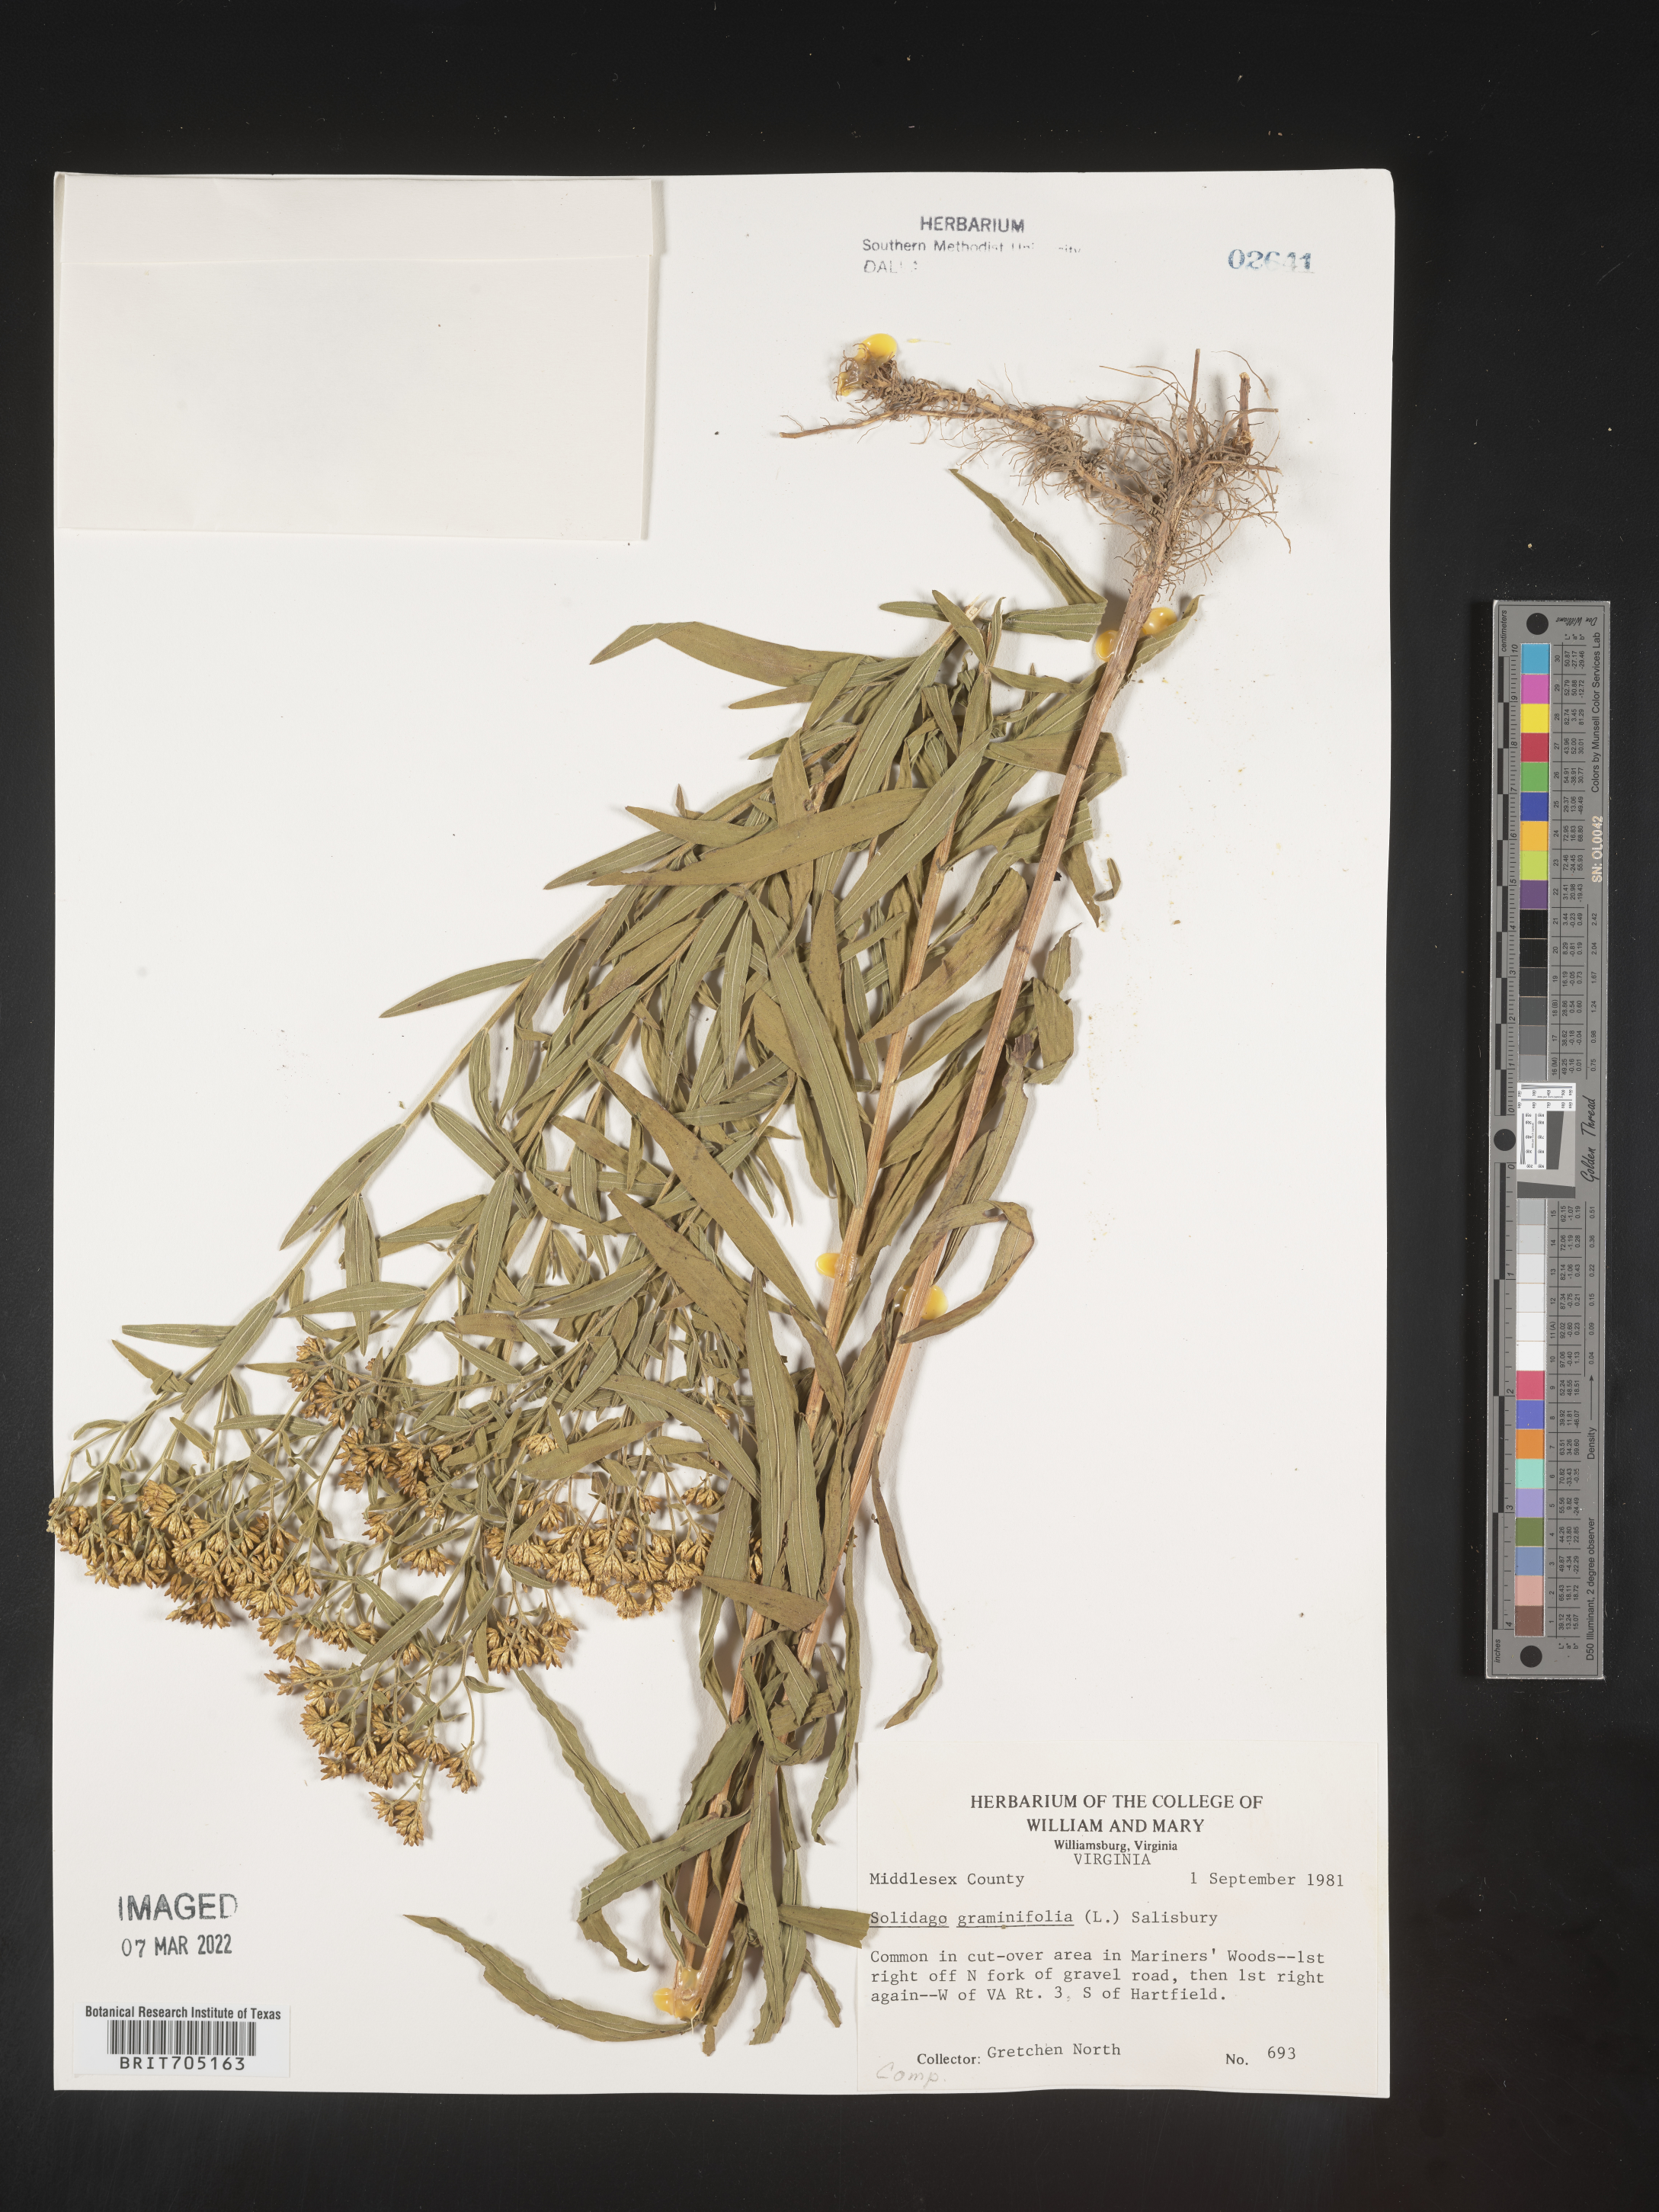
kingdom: Plantae
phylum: Tracheophyta
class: Magnoliopsida
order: Asterales
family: Asteraceae
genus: Euthamia
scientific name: Euthamia graminifolia
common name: Common goldentop
